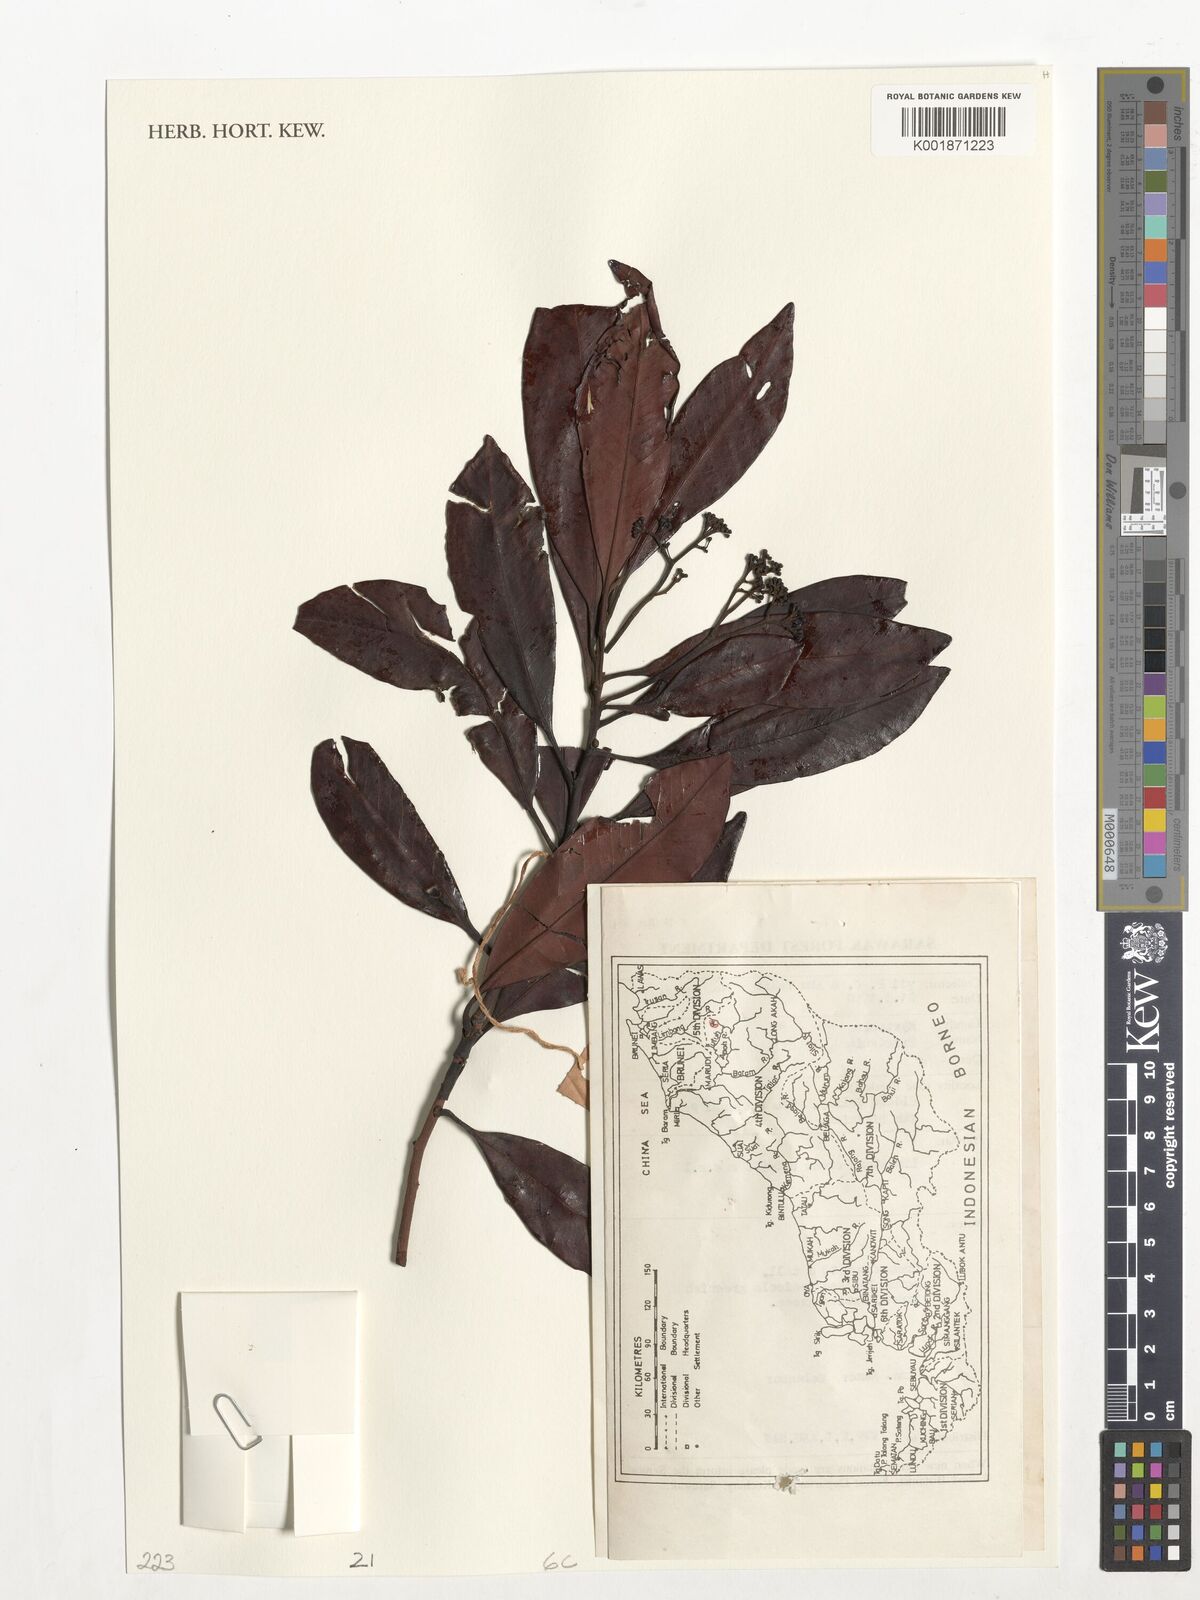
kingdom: Plantae
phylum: Tracheophyta
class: Magnoliopsida
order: Myrtales
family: Myrtaceae
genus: Tristaniopsis
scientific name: Tristaniopsis
